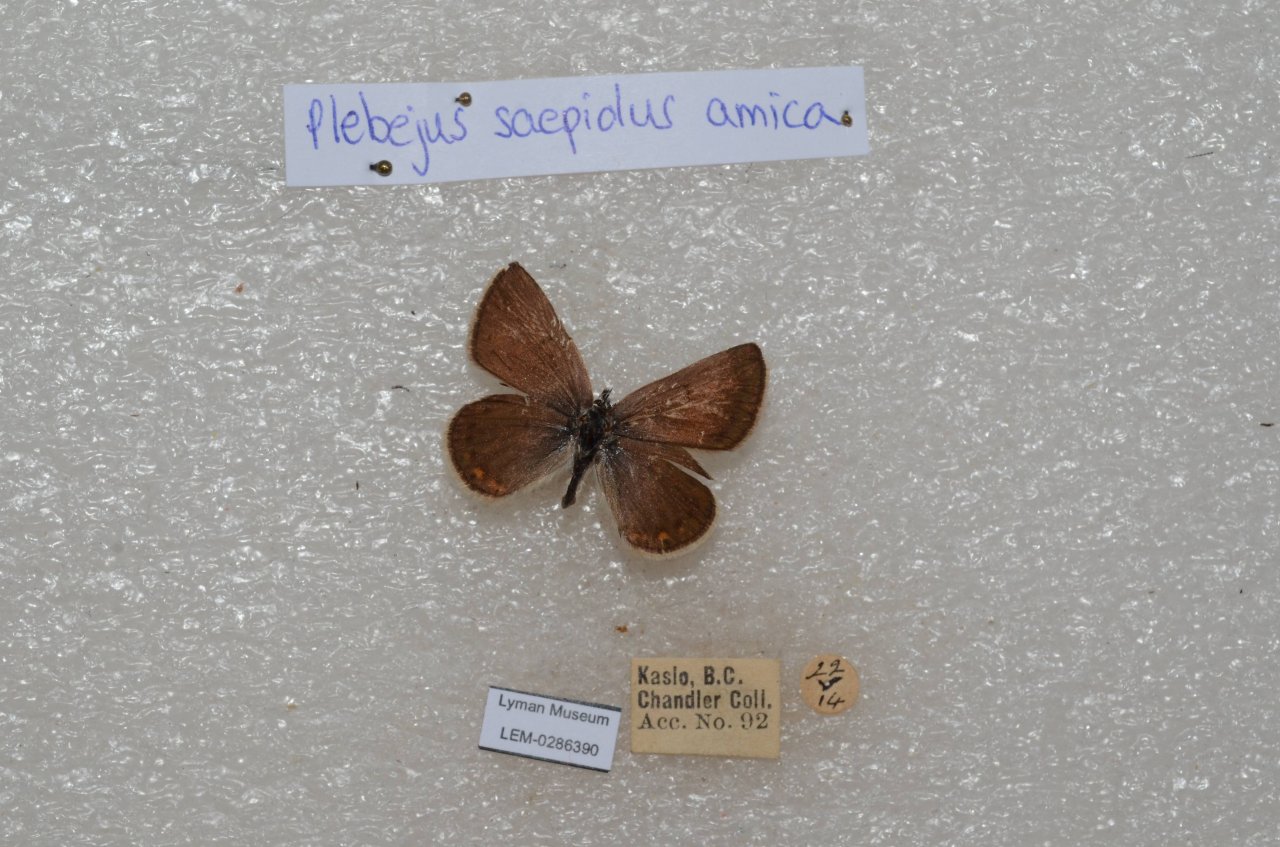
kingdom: Animalia
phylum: Arthropoda
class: Insecta
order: Lepidoptera
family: Lycaenidae
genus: Plebejus
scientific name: Plebejus saepiolus
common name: Greenish Blue
